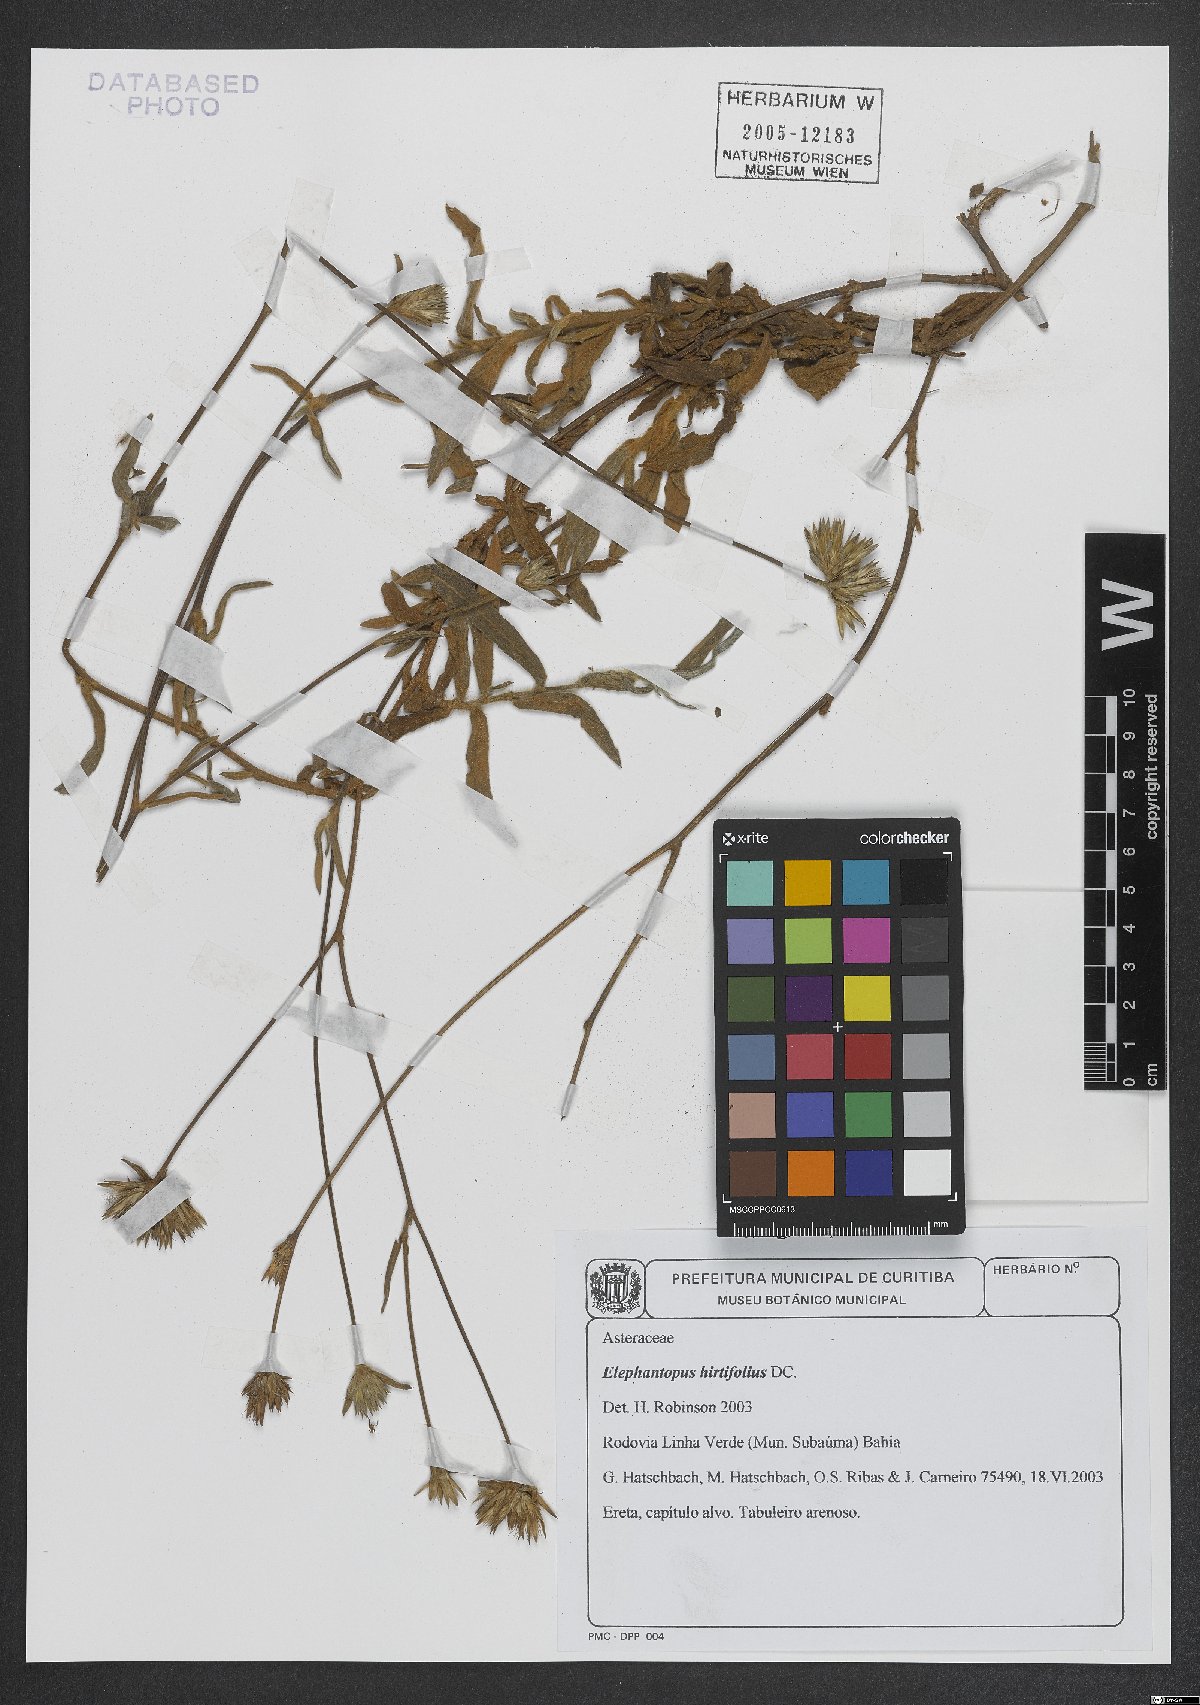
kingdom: Plantae
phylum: Tracheophyta
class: Magnoliopsida
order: Asterales
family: Asteraceae
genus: Elephantopus
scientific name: Elephantopus hirtiflorus
